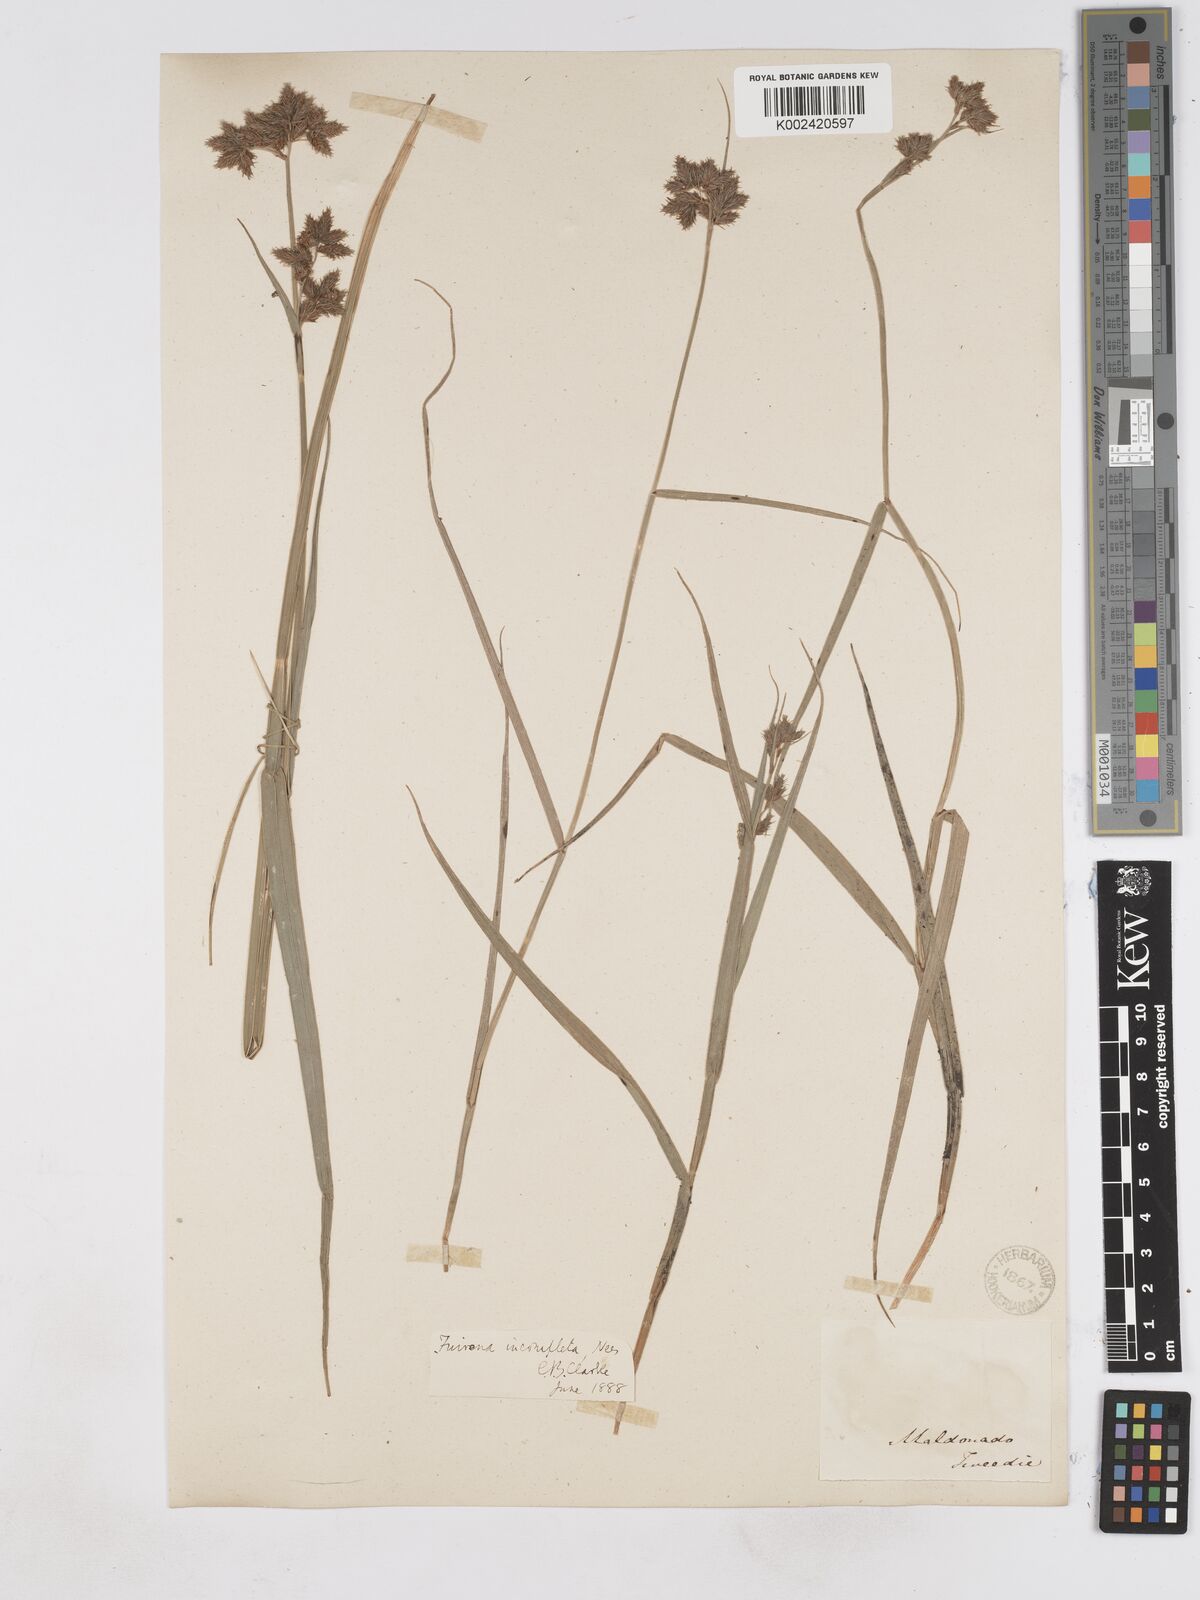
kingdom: Plantae
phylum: Tracheophyta
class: Liliopsida
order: Poales
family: Cyperaceae
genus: Fuirena
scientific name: Fuirena incompleta
